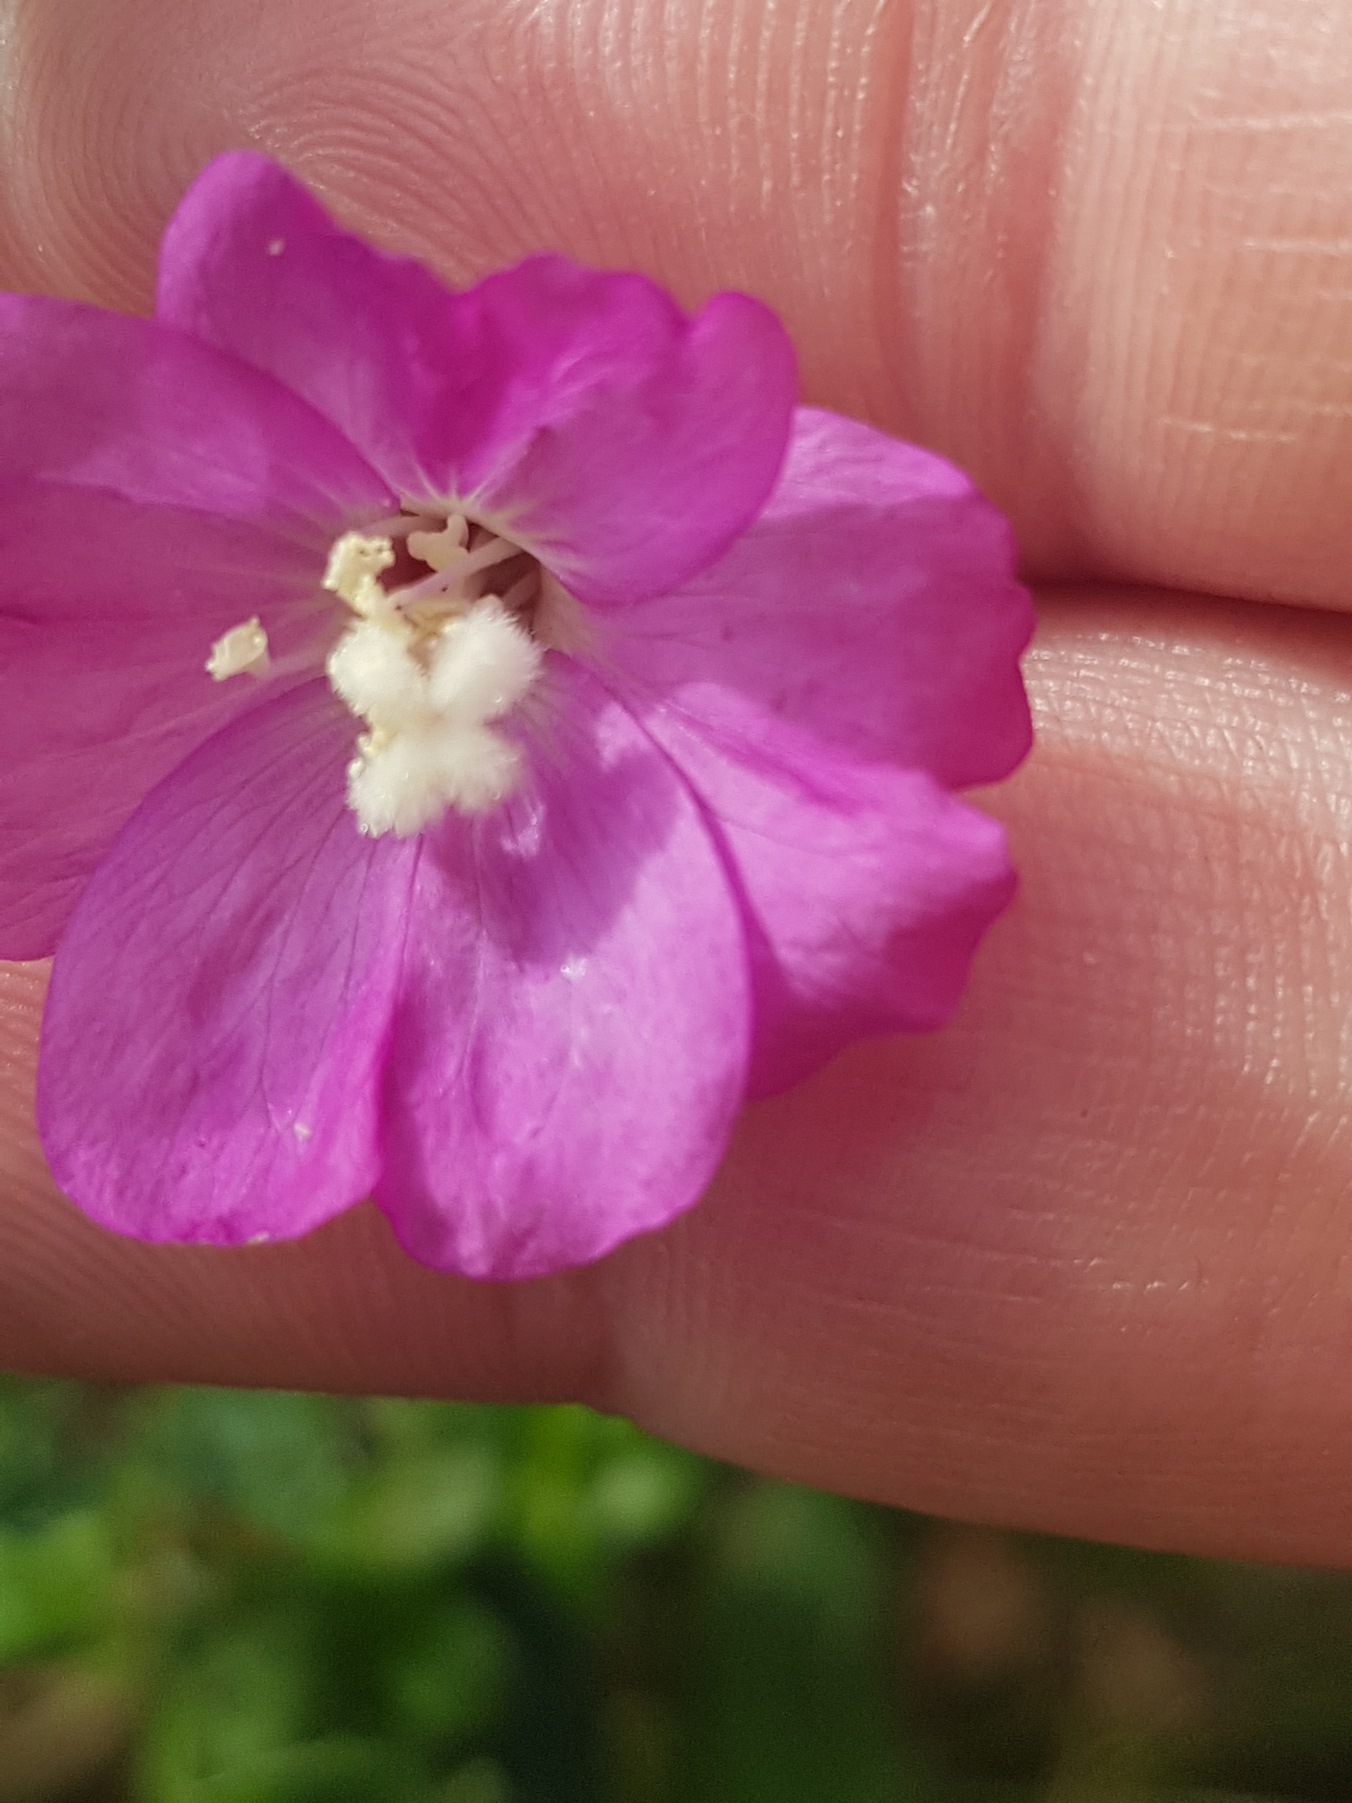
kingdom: Plantae
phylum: Tracheophyta
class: Magnoliopsida
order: Myrtales
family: Onagraceae
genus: Epilobium
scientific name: Epilobium hirsutum
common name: Lådden dueurt
